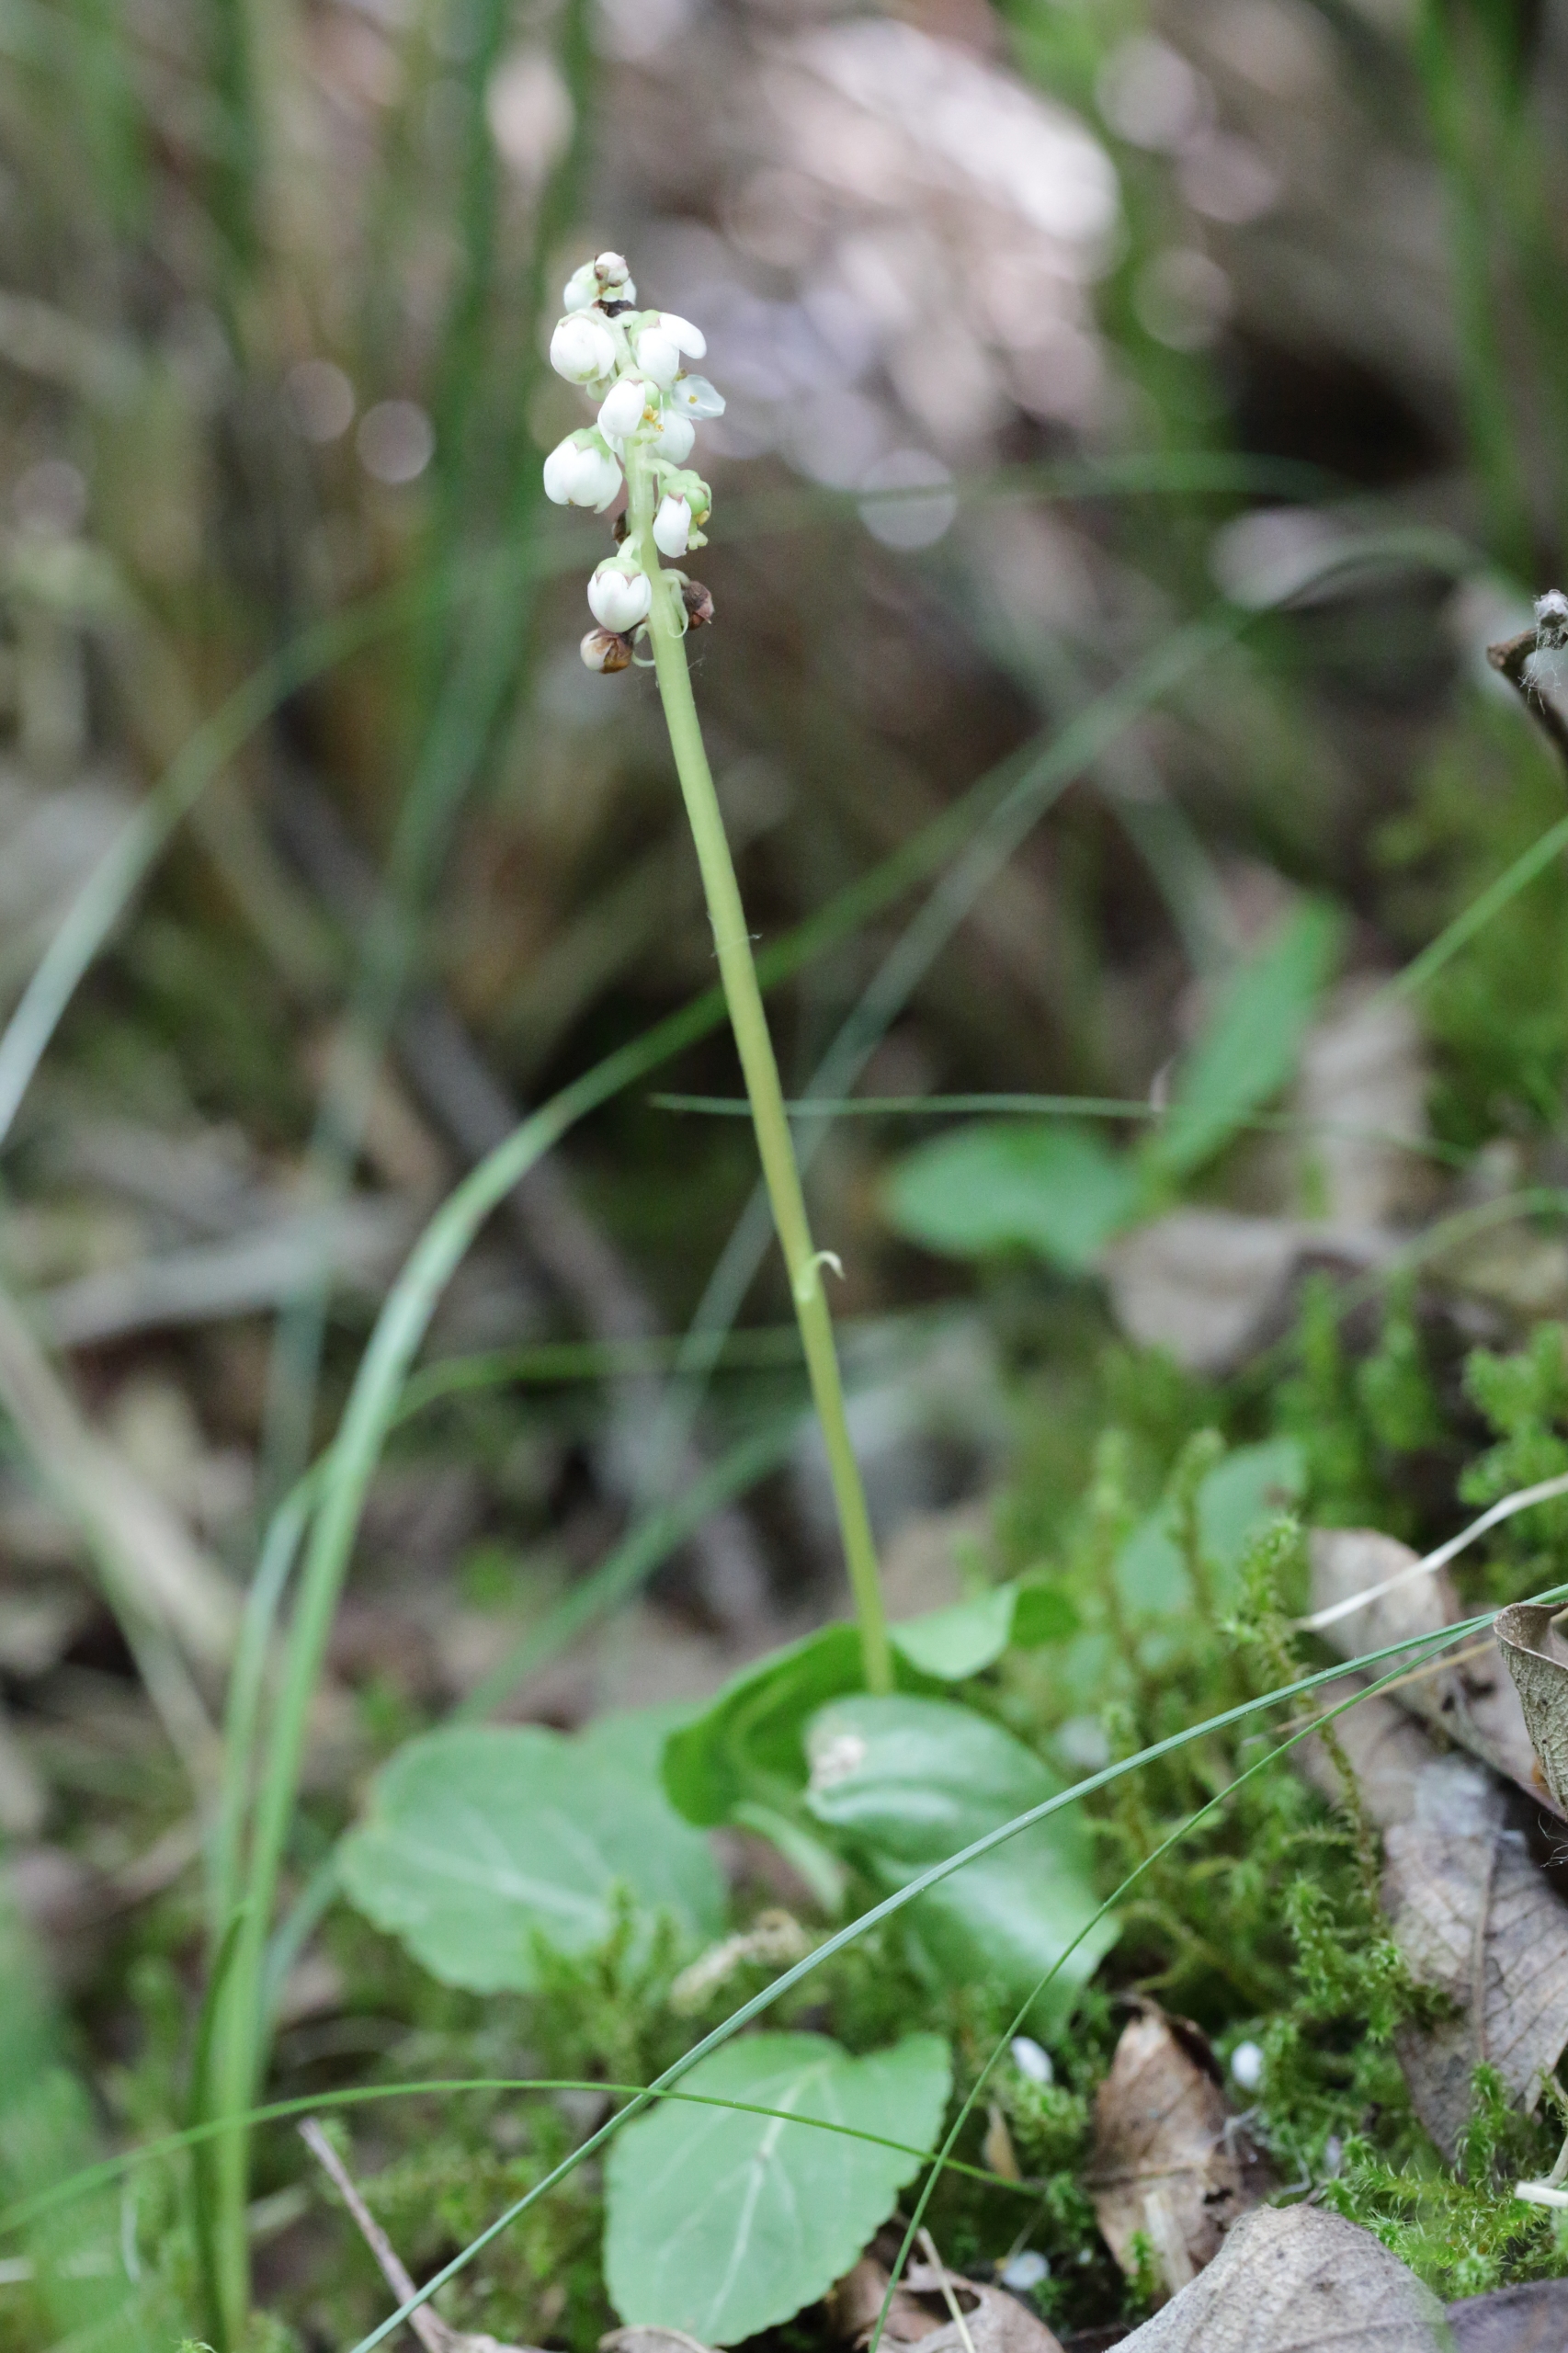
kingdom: Plantae
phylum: Tracheophyta
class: Magnoliopsida
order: Ericales
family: Ericaceae
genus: Pyrola
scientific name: Pyrola minor
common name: Liden vintergrøn
